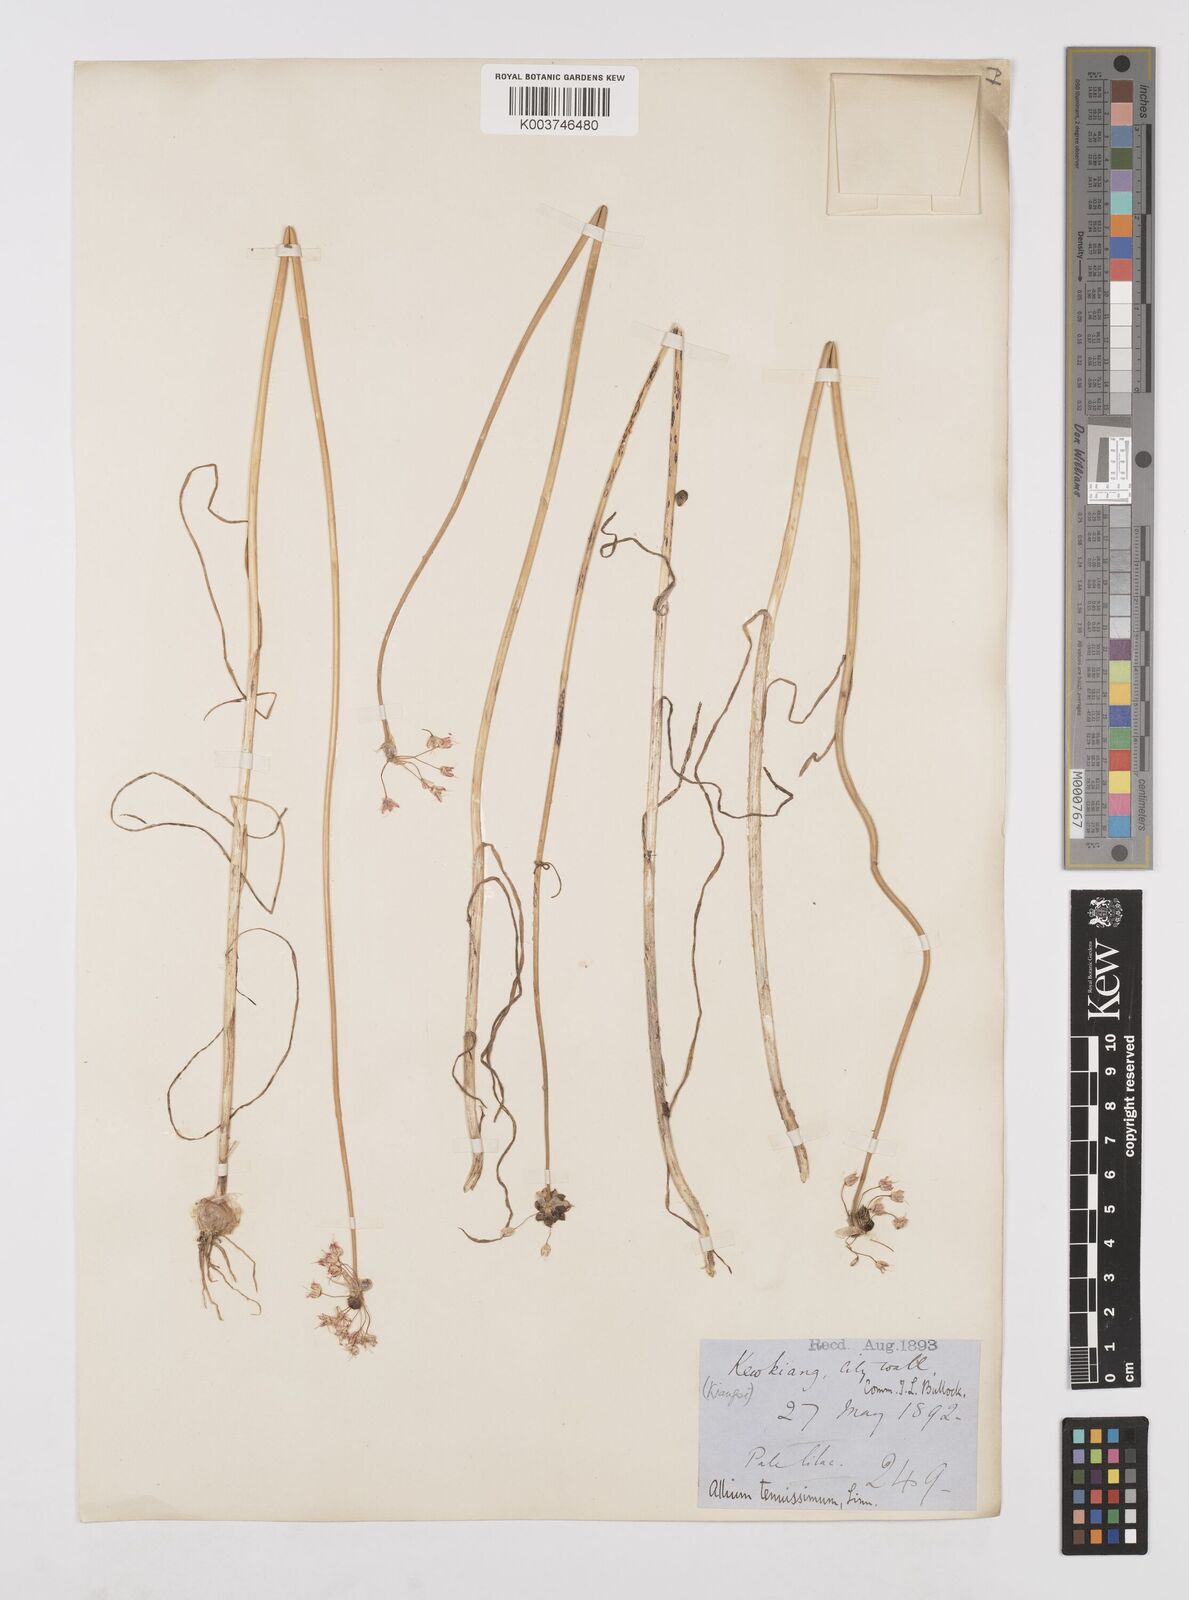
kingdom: Plantae
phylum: Tracheophyta
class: Liliopsida
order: Asparagales
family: Amaryllidaceae
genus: Allium
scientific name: Allium macrostemon
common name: Chinese garlic
